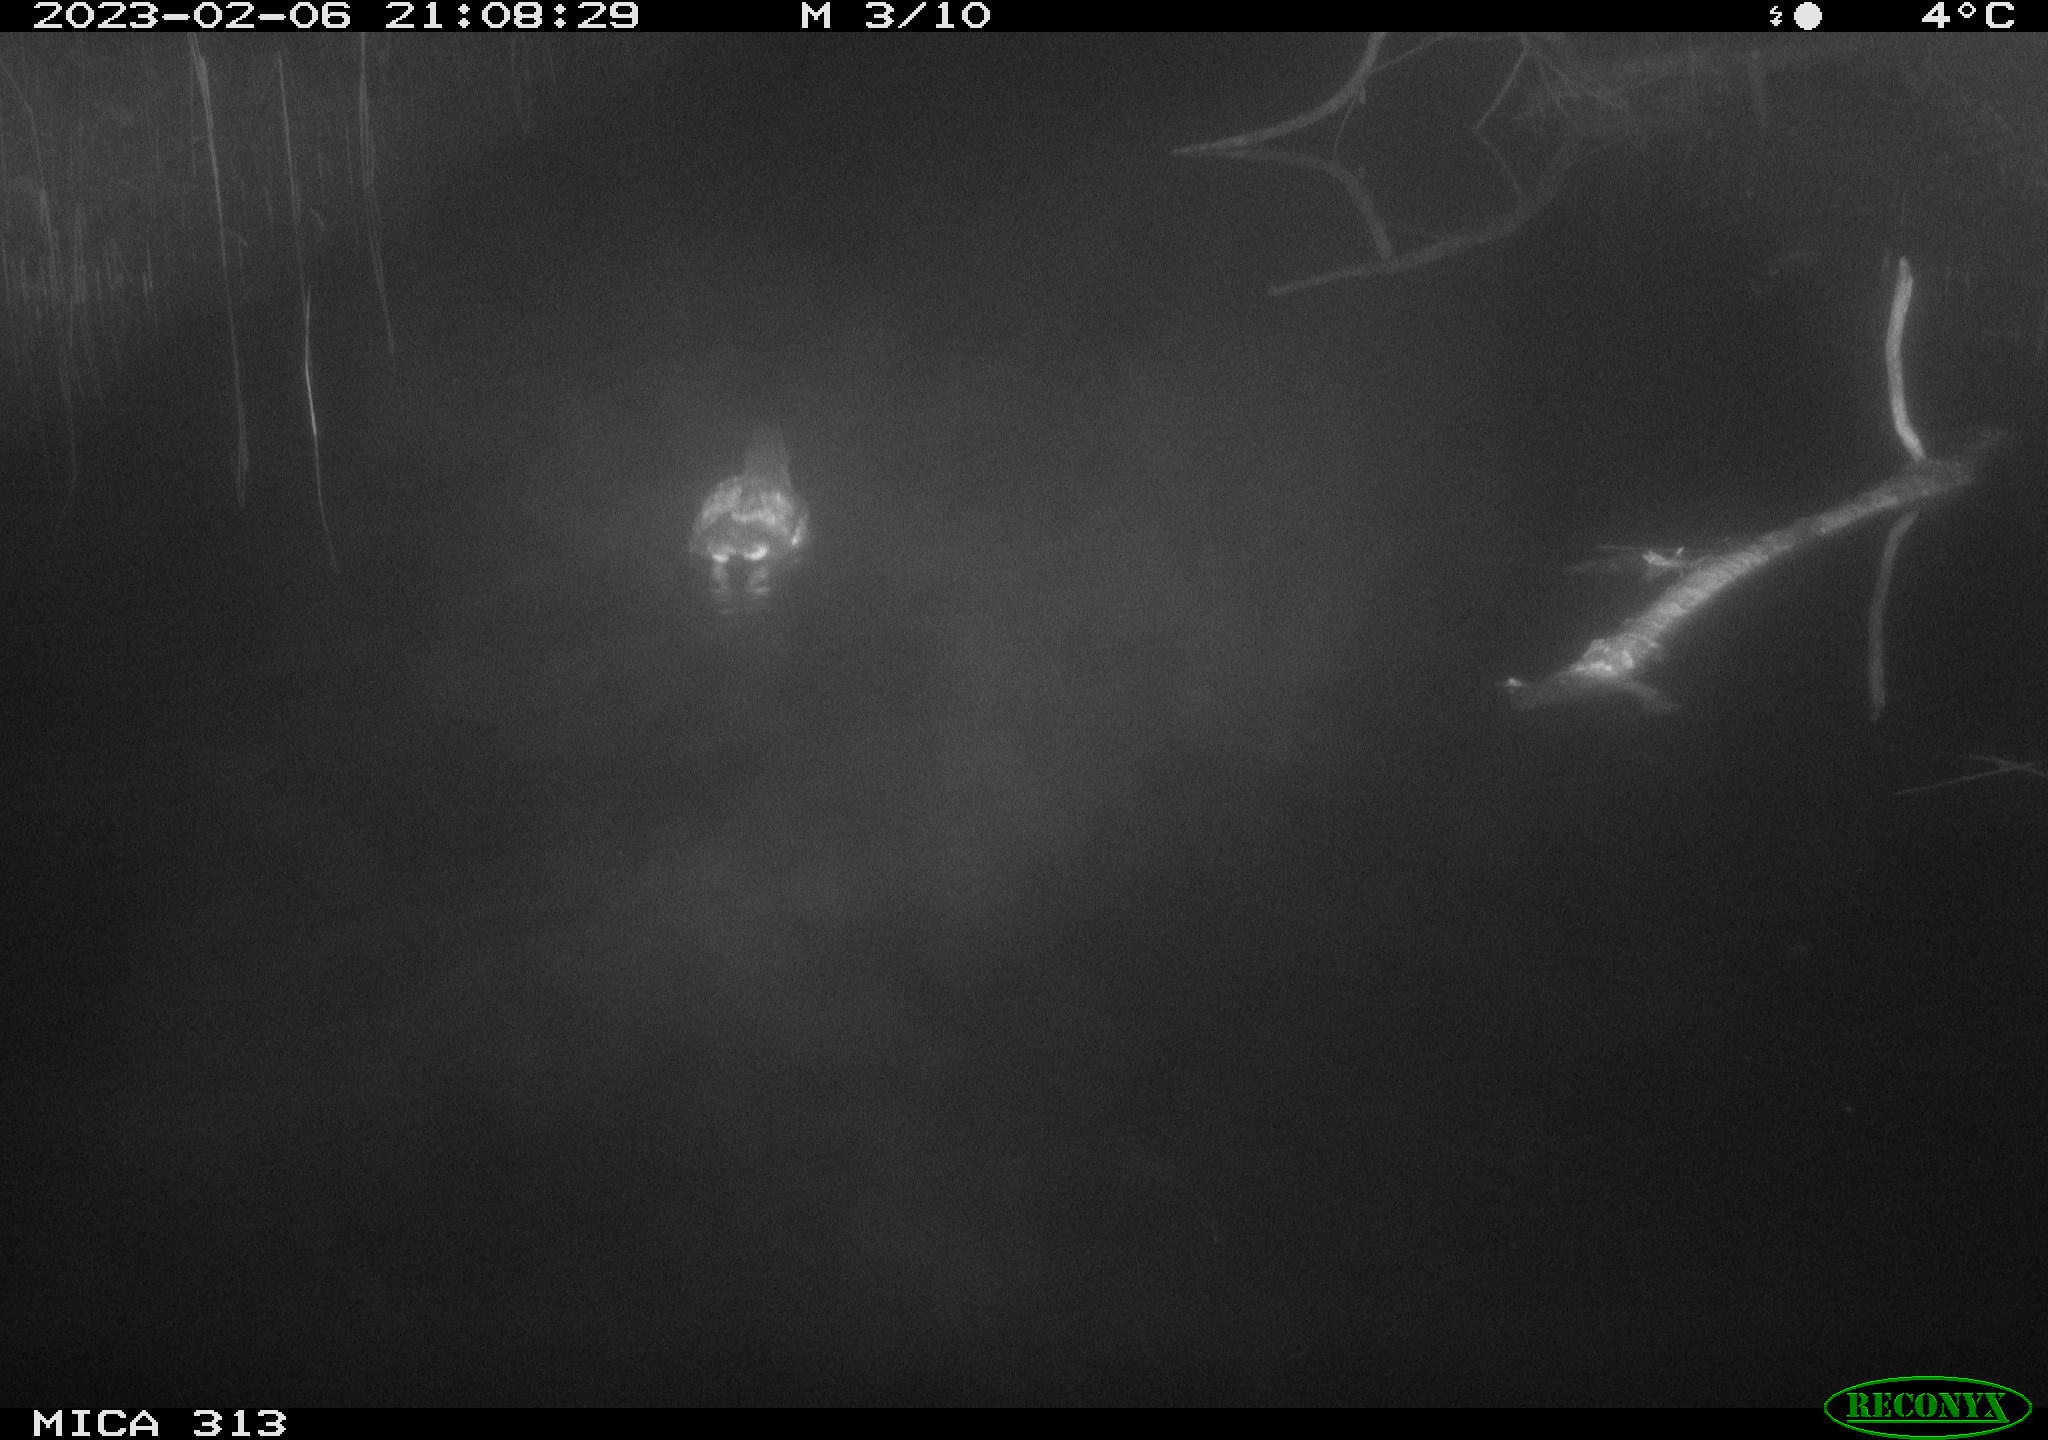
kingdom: Animalia
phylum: Chordata
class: Aves
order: Gruiformes
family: Rallidae
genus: Gallinula
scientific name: Gallinula chloropus
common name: Common moorhen
